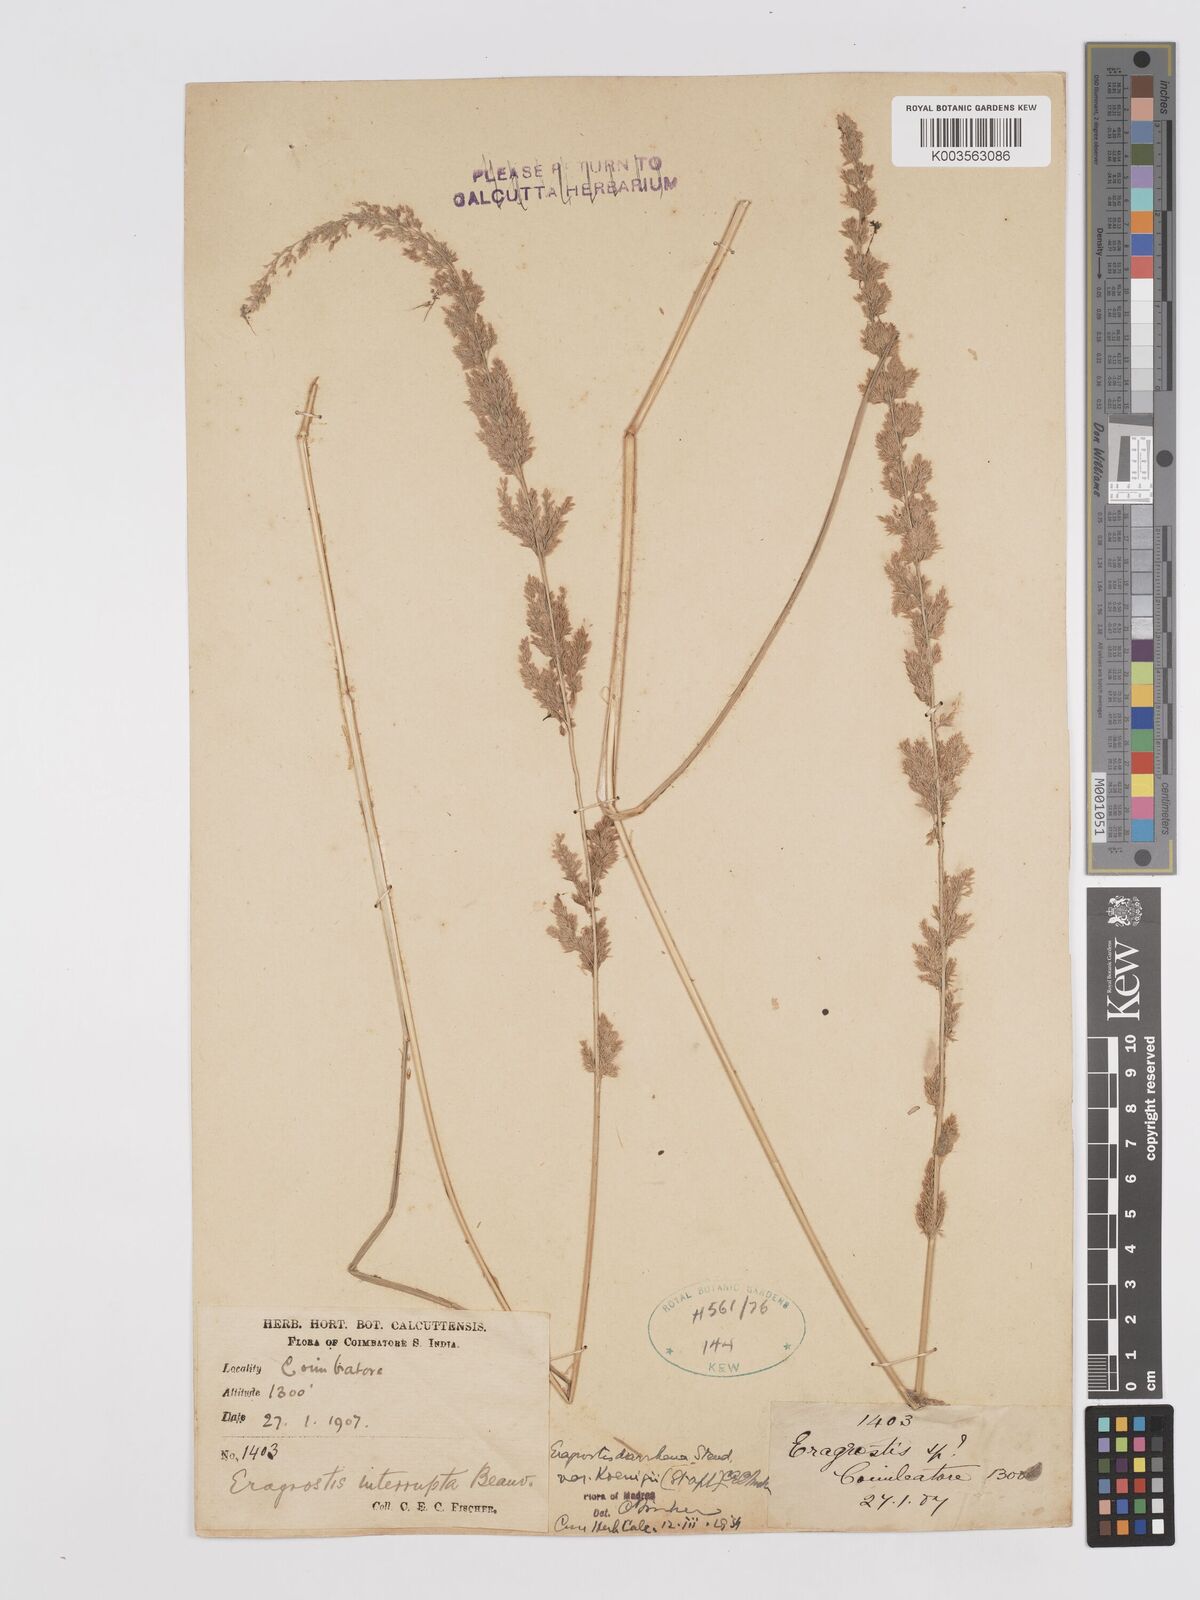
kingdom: Plantae
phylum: Tracheophyta
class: Liliopsida
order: Poales
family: Poaceae
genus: Eragrostis
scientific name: Eragrostis japonica
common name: Pond lovegrass
